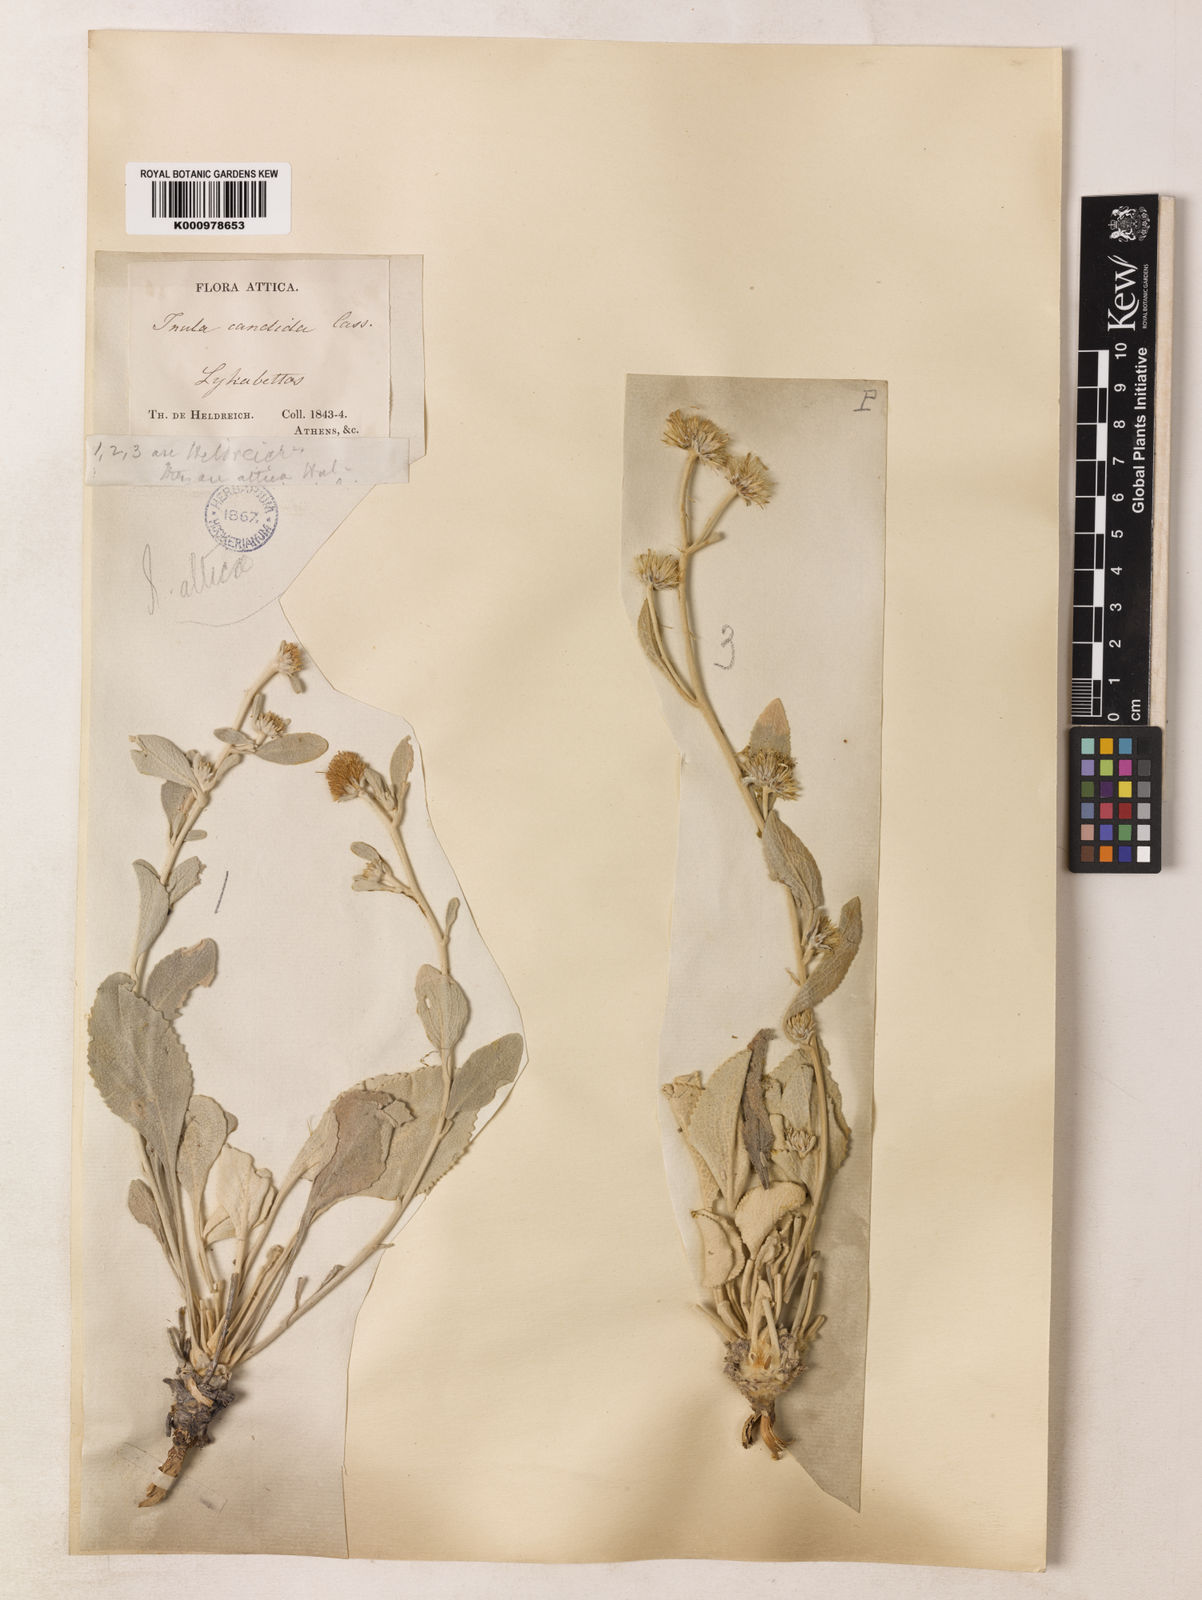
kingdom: Plantae
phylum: Tracheophyta
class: Magnoliopsida
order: Asterales
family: Asteraceae
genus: Inula
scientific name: Inula
